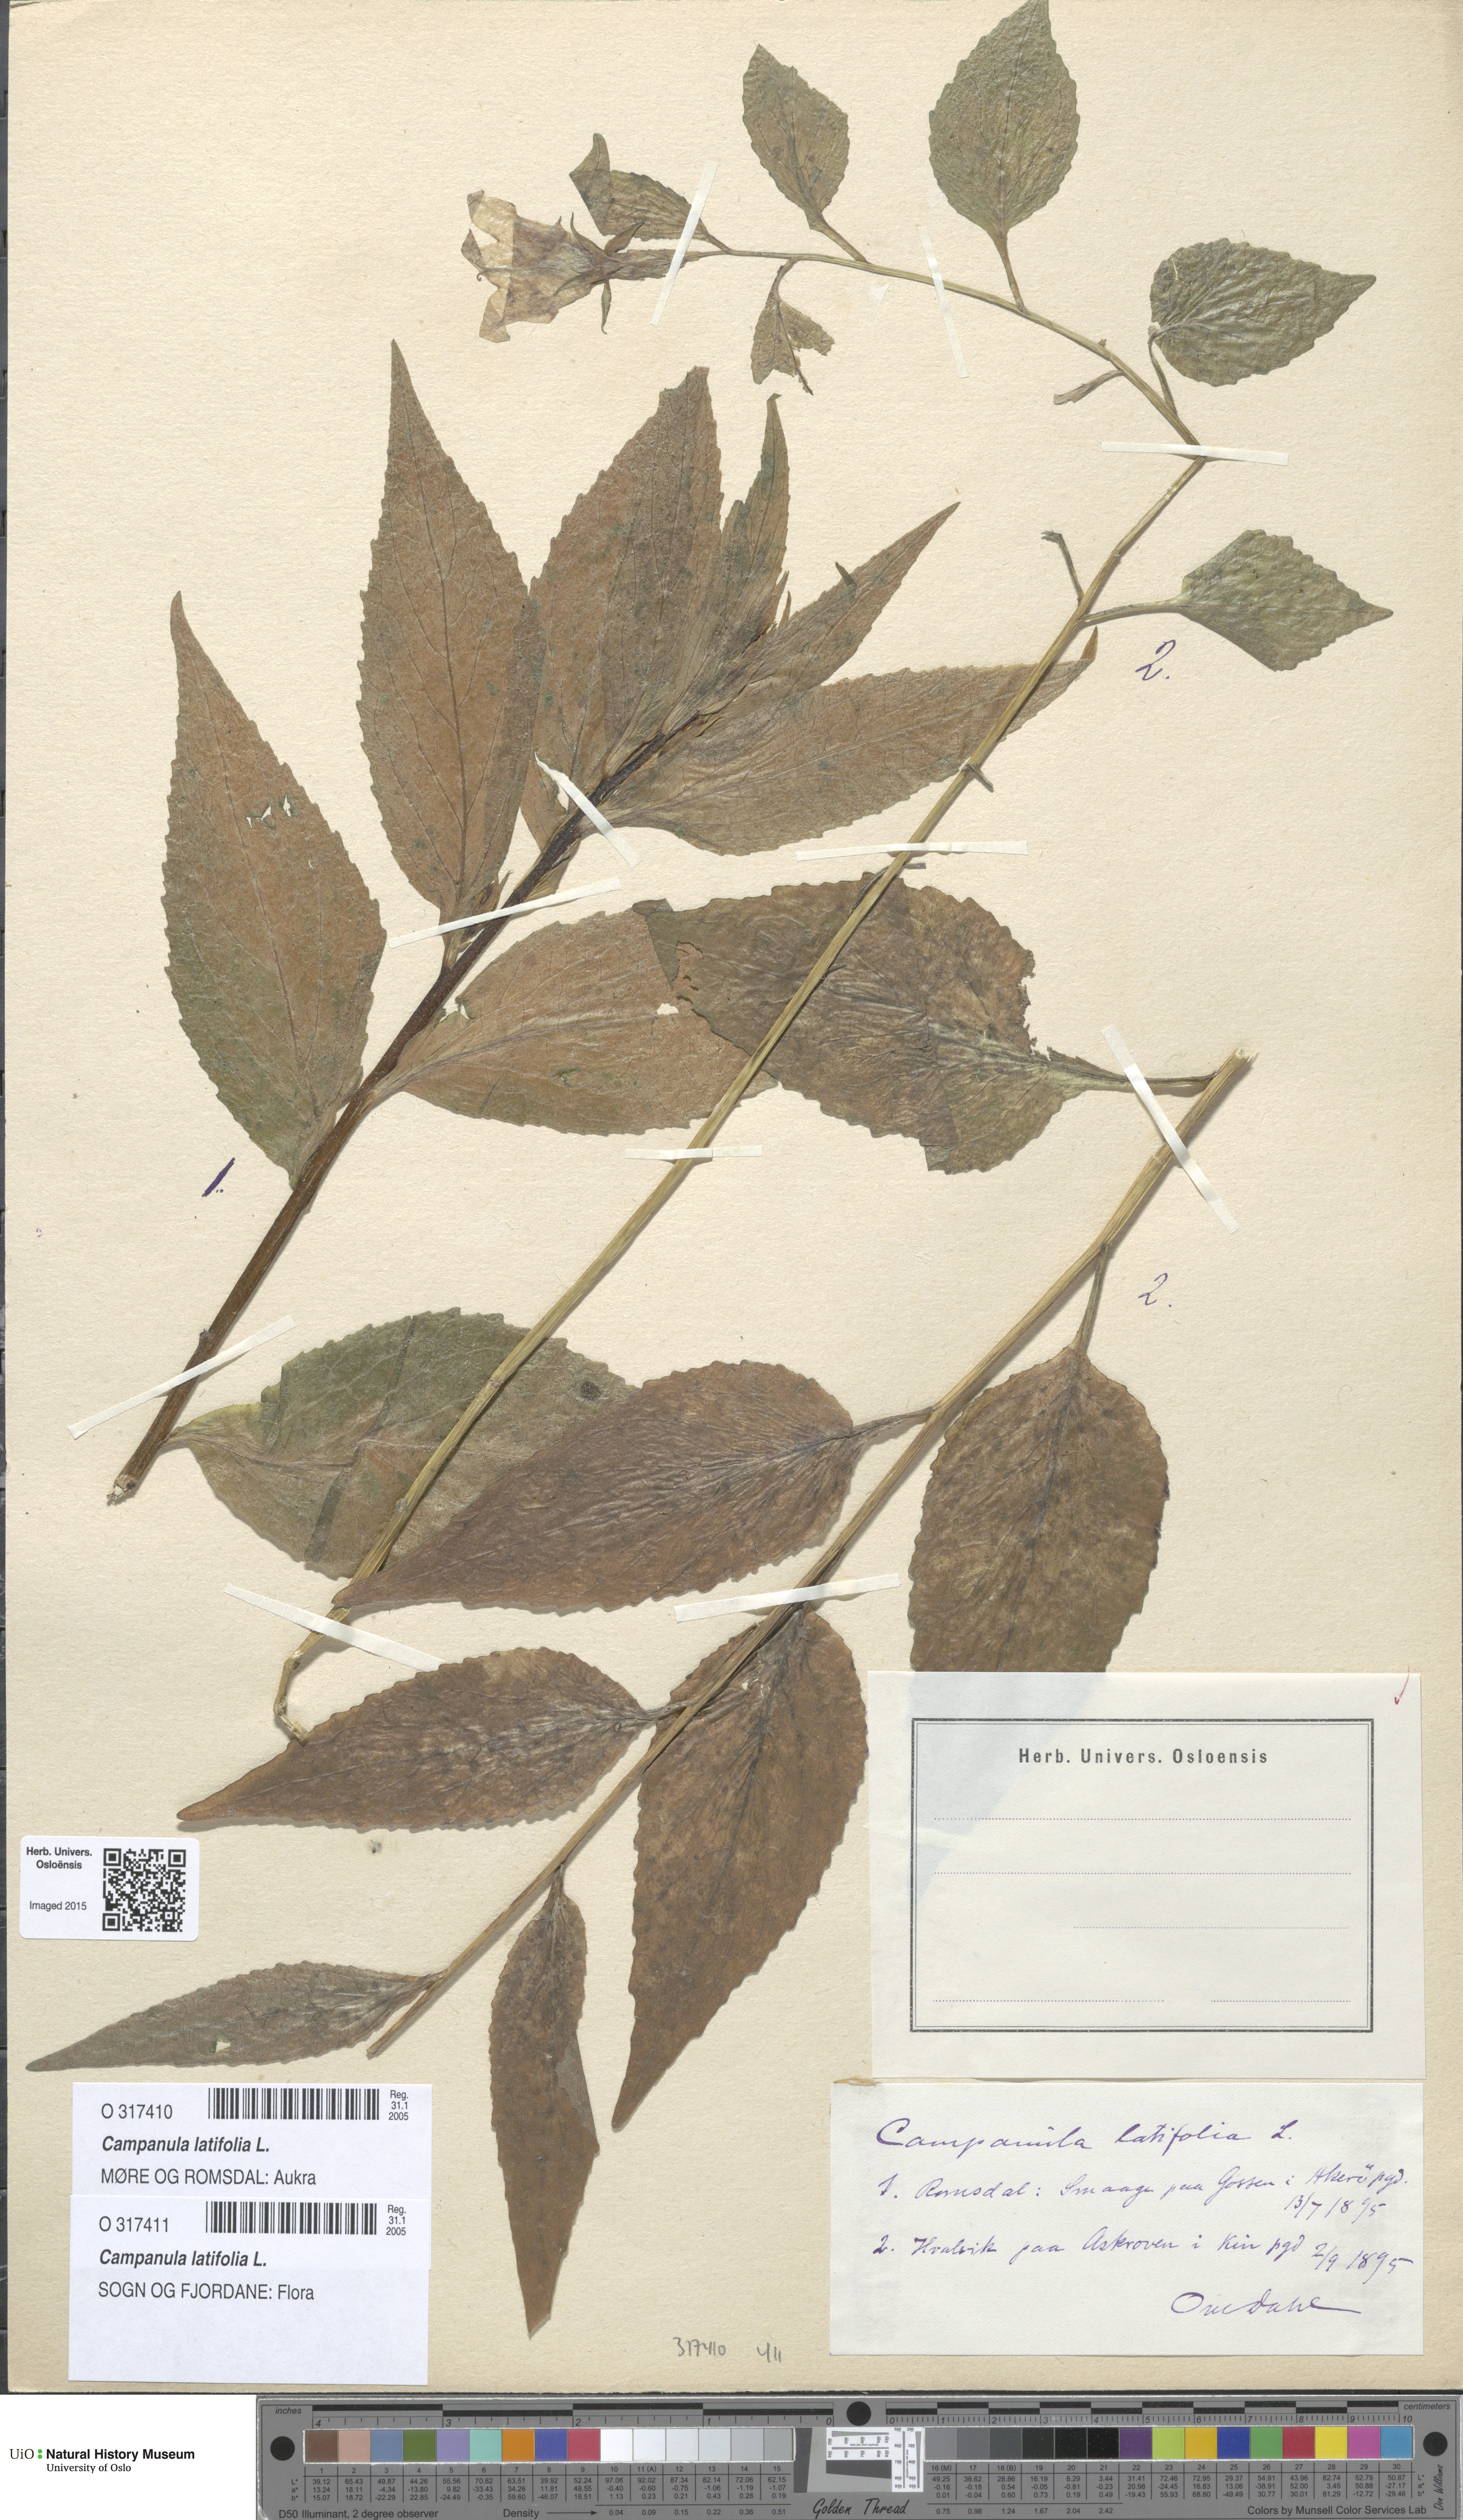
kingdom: Plantae
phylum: Tracheophyta
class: Magnoliopsida
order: Asterales
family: Campanulaceae
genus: Campanula
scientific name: Campanula latifolia
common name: Giant bellflower
